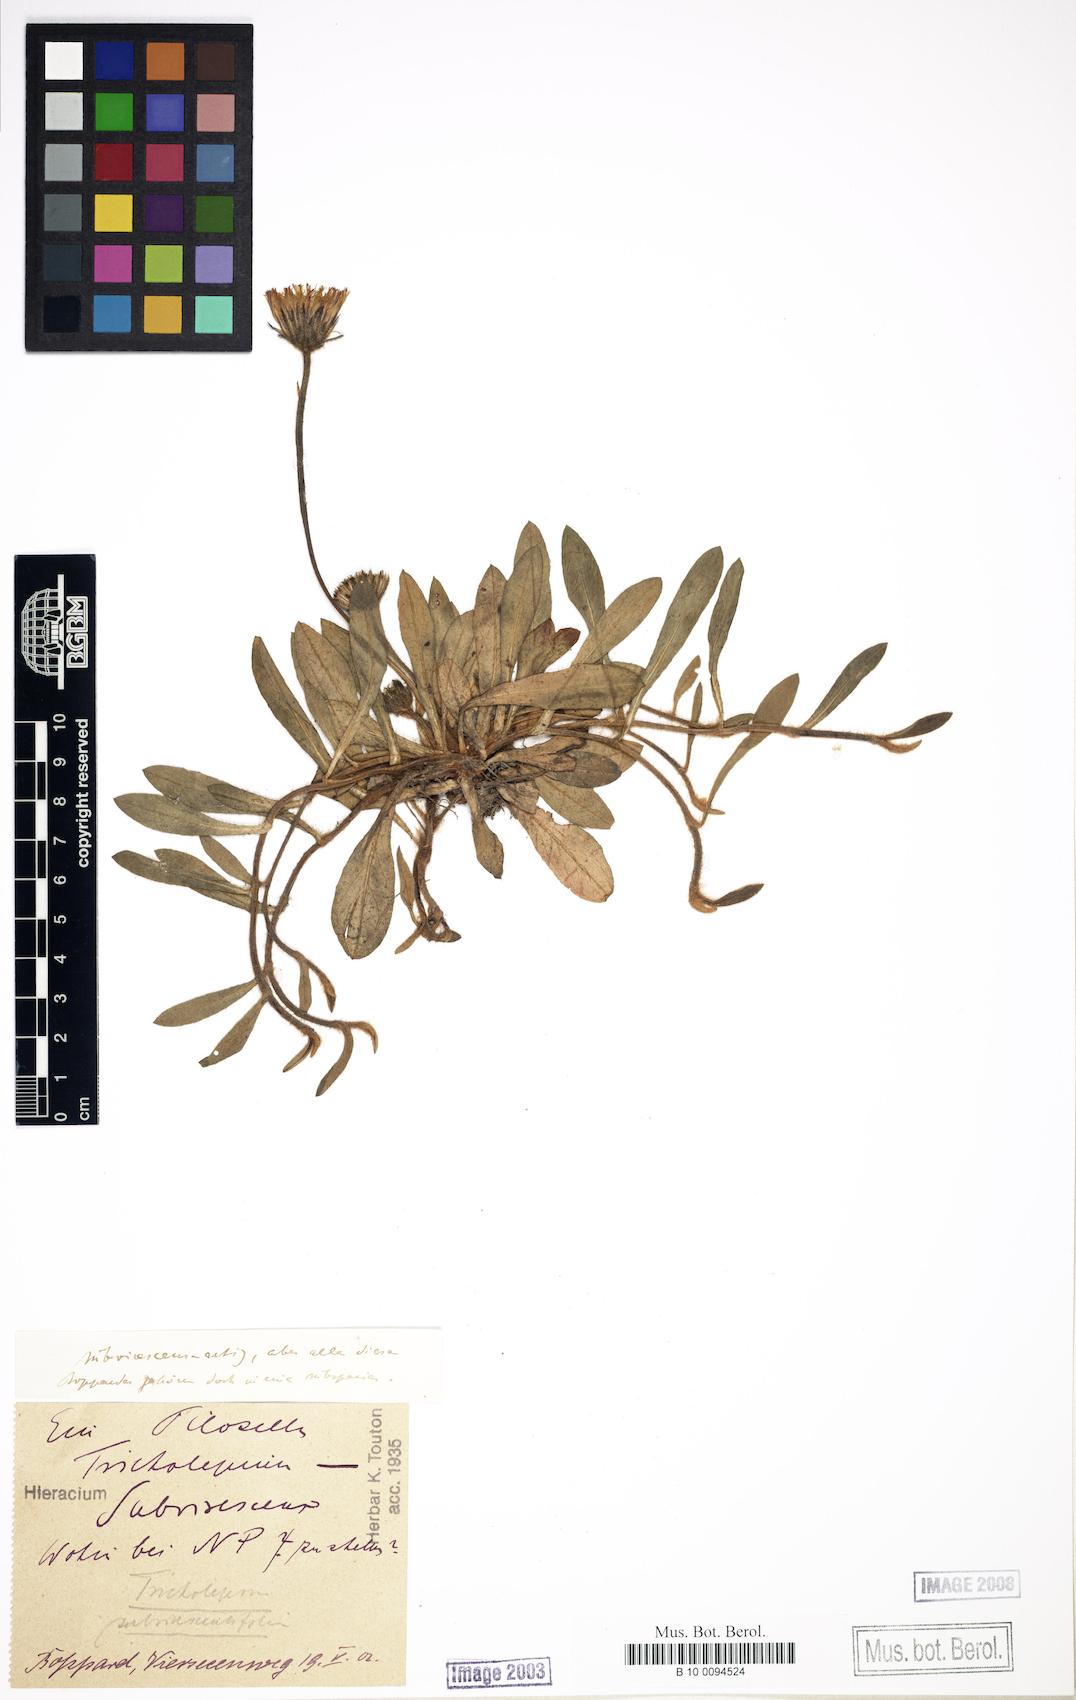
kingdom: Plantae
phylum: Tracheophyta
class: Magnoliopsida
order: Asterales
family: Asteraceae
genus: Pilosella
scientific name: Pilosella officinarum
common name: Mouse-ear hawkweed
